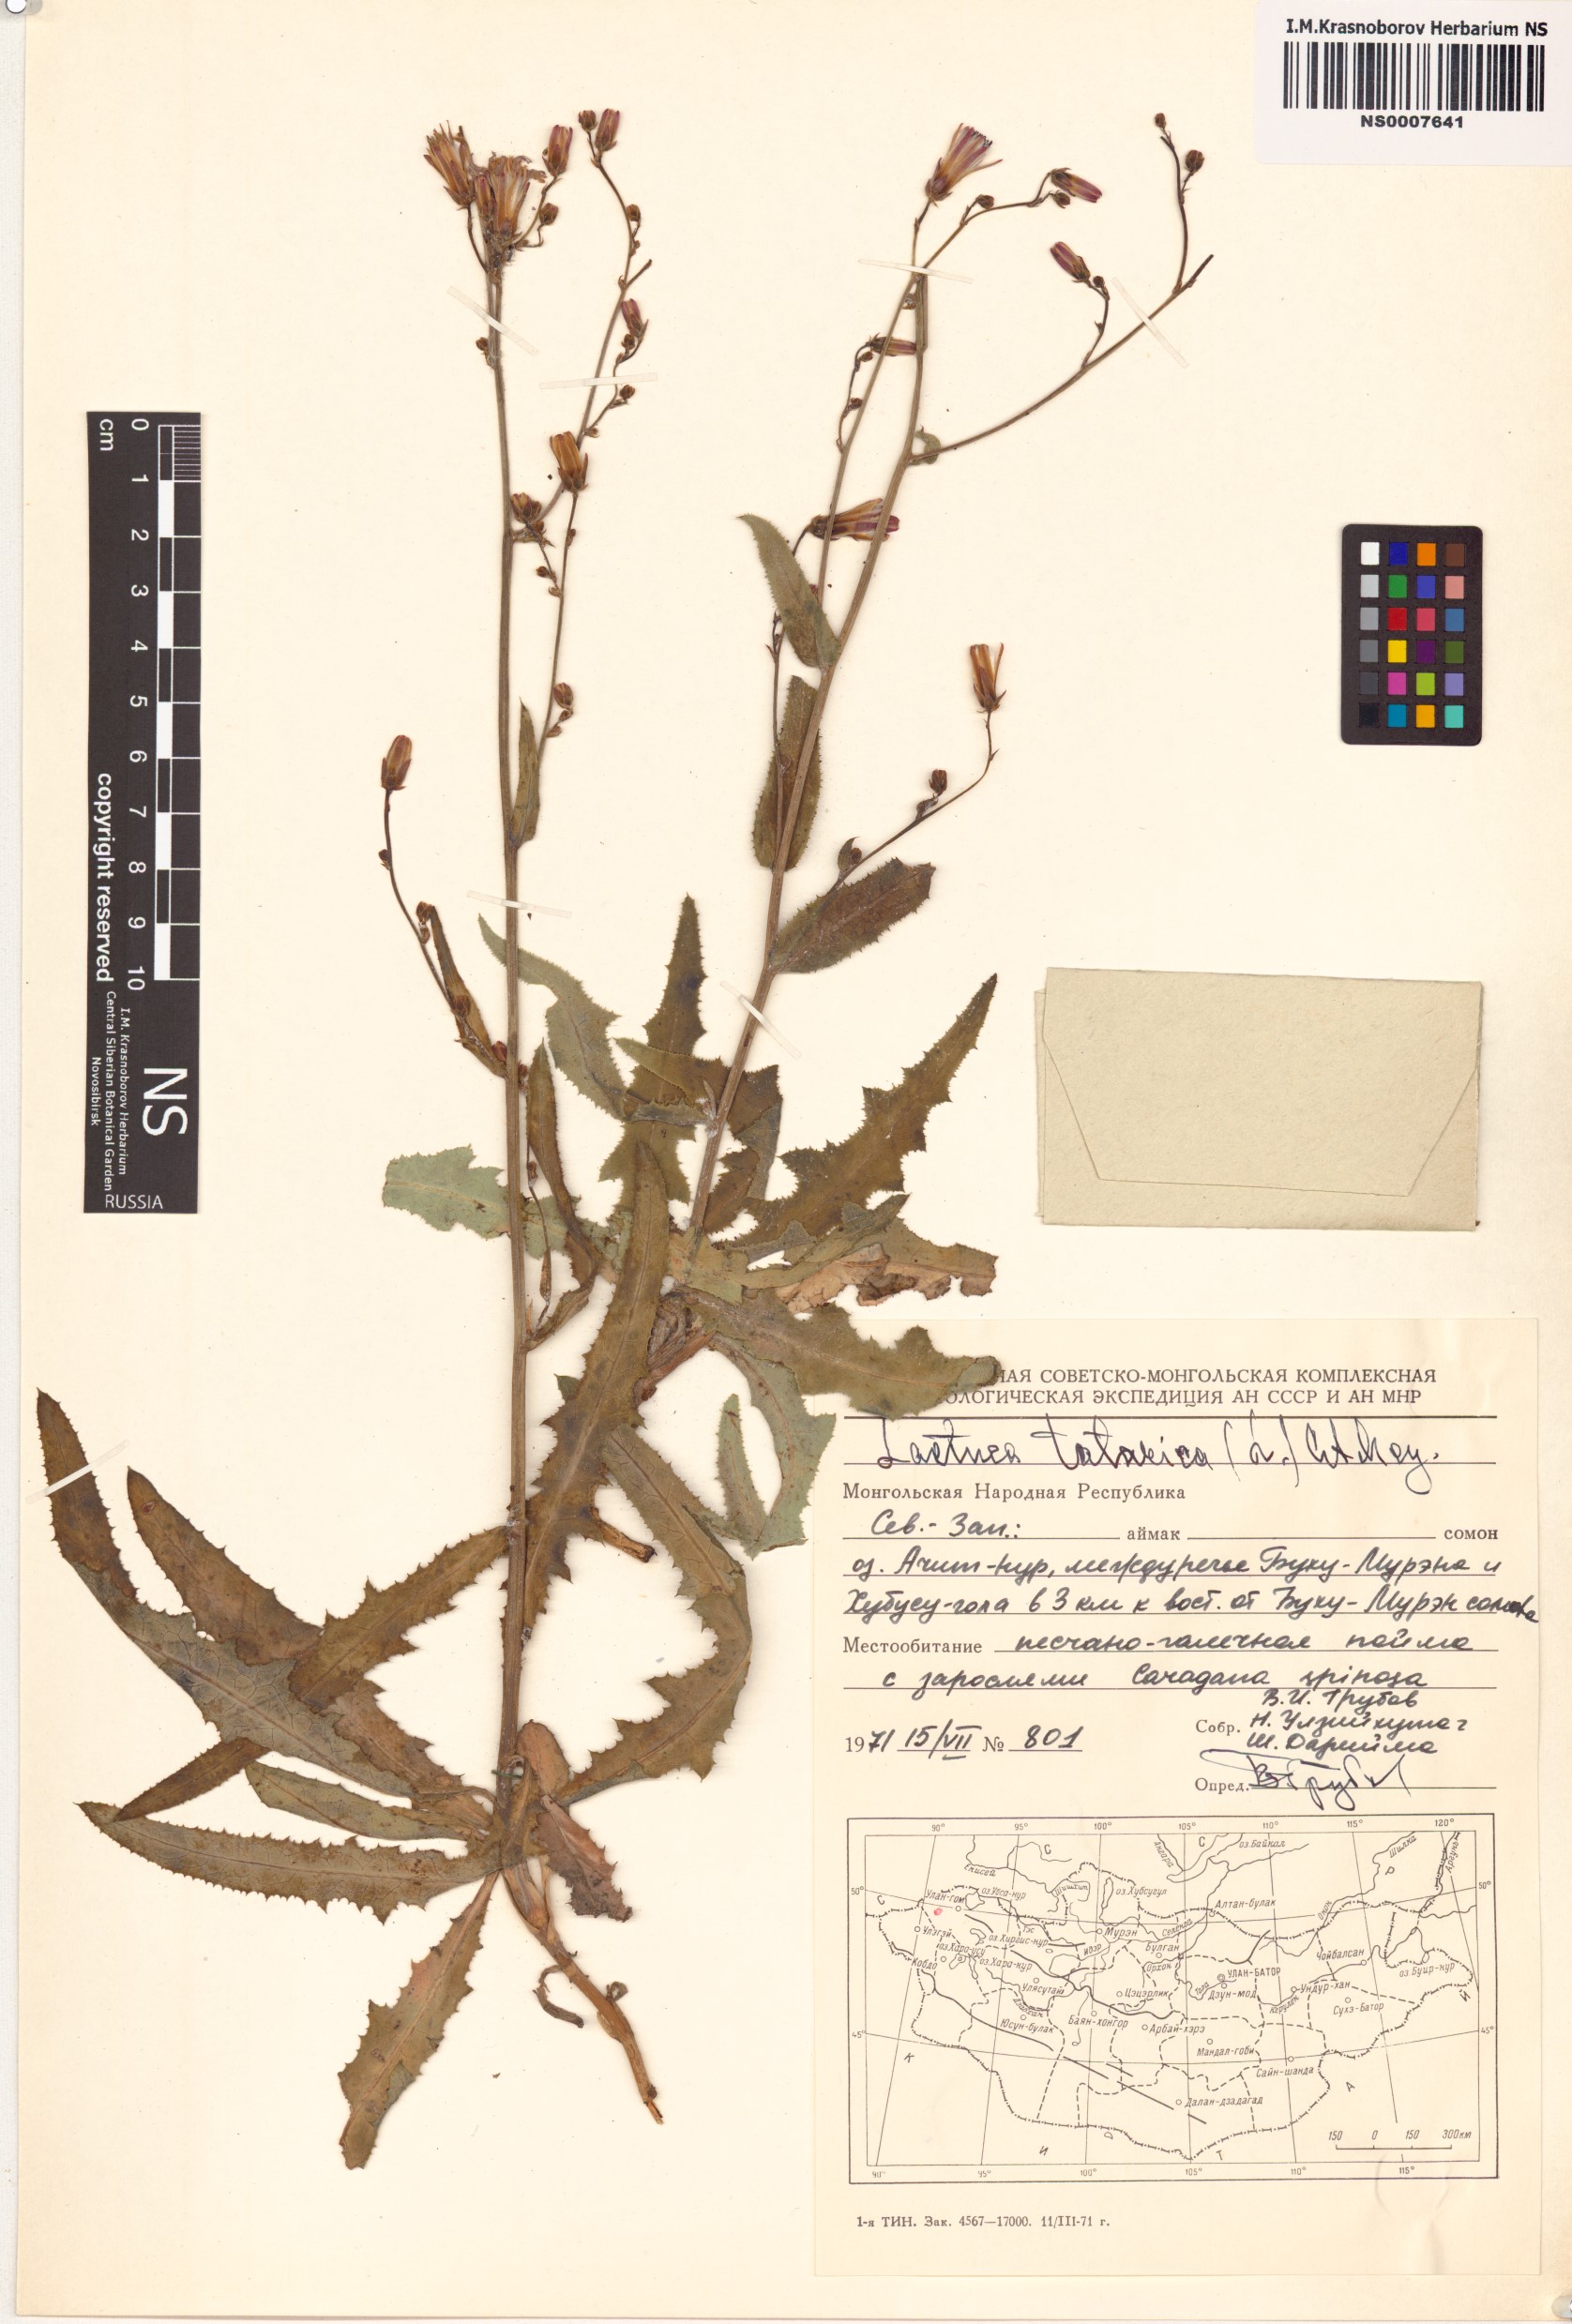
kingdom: Plantae
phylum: Tracheophyta
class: Magnoliopsida
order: Asterales
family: Asteraceae
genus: Lactuca
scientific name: Lactuca tatarica
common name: Blue lettuce
